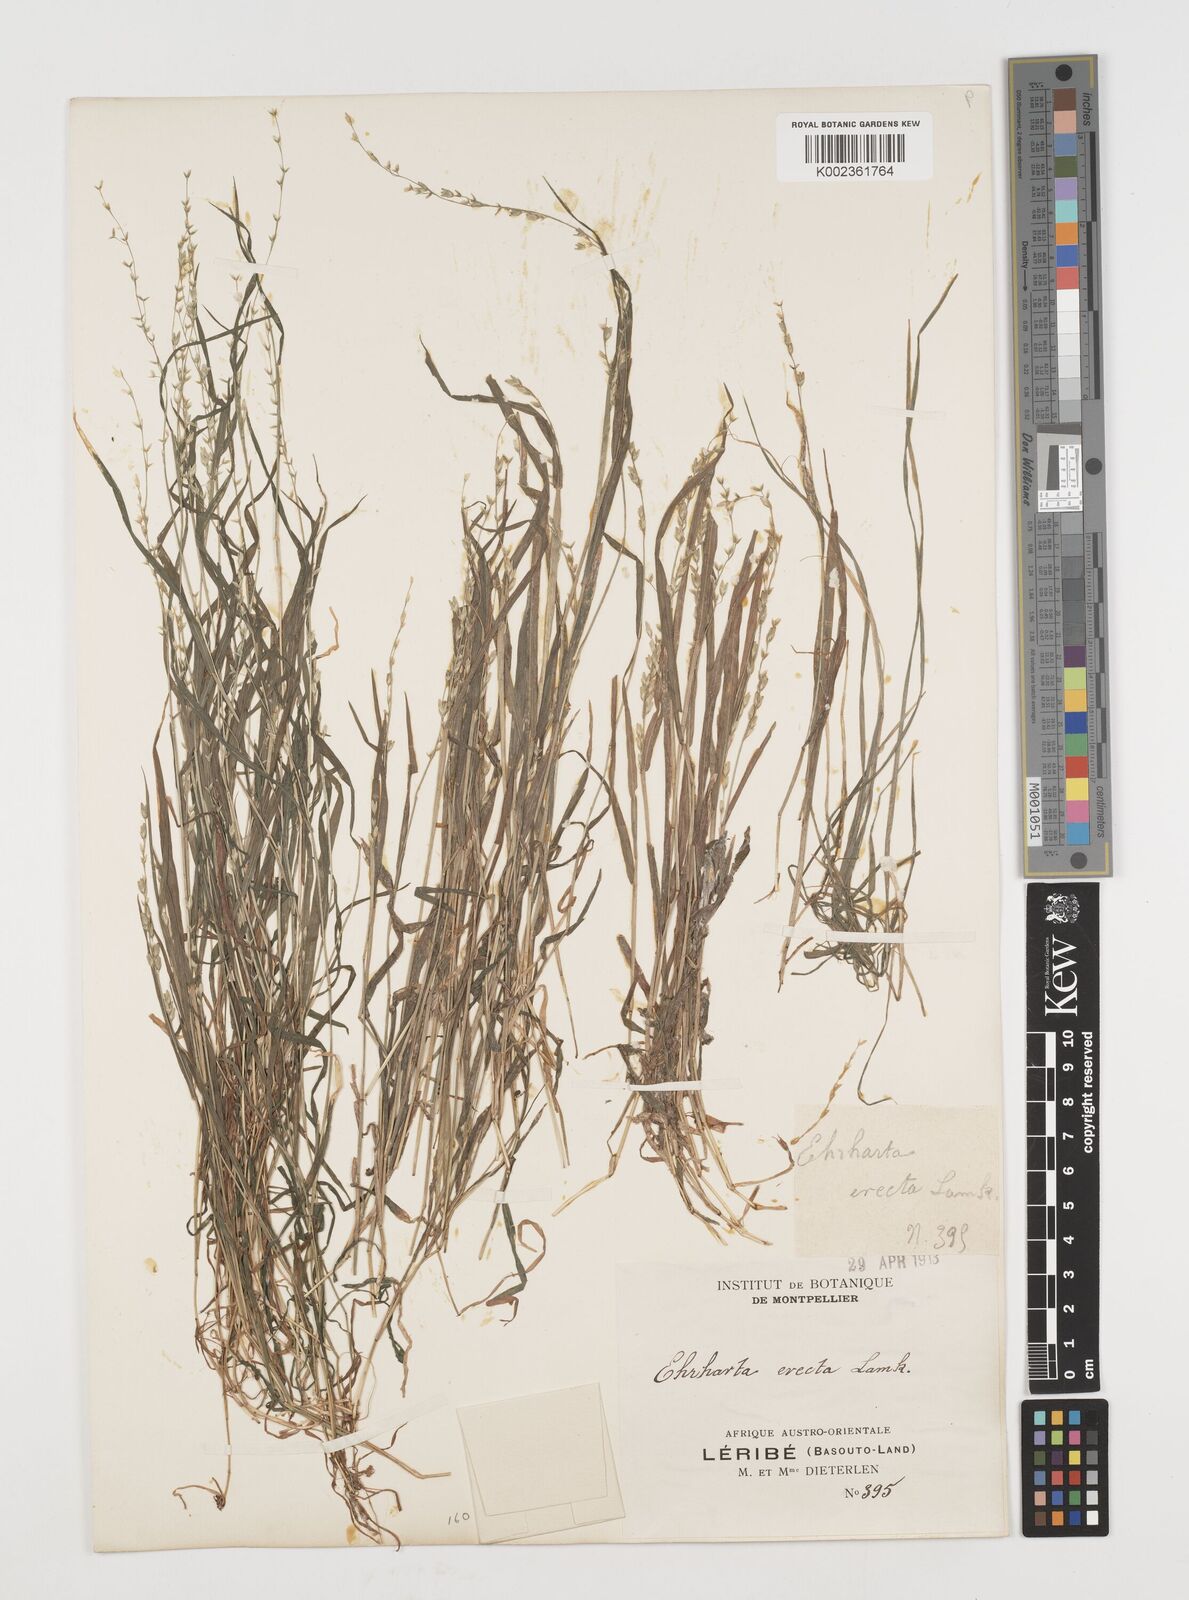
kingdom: Plantae
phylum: Tracheophyta
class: Liliopsida
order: Poales
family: Poaceae
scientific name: Poaceae
